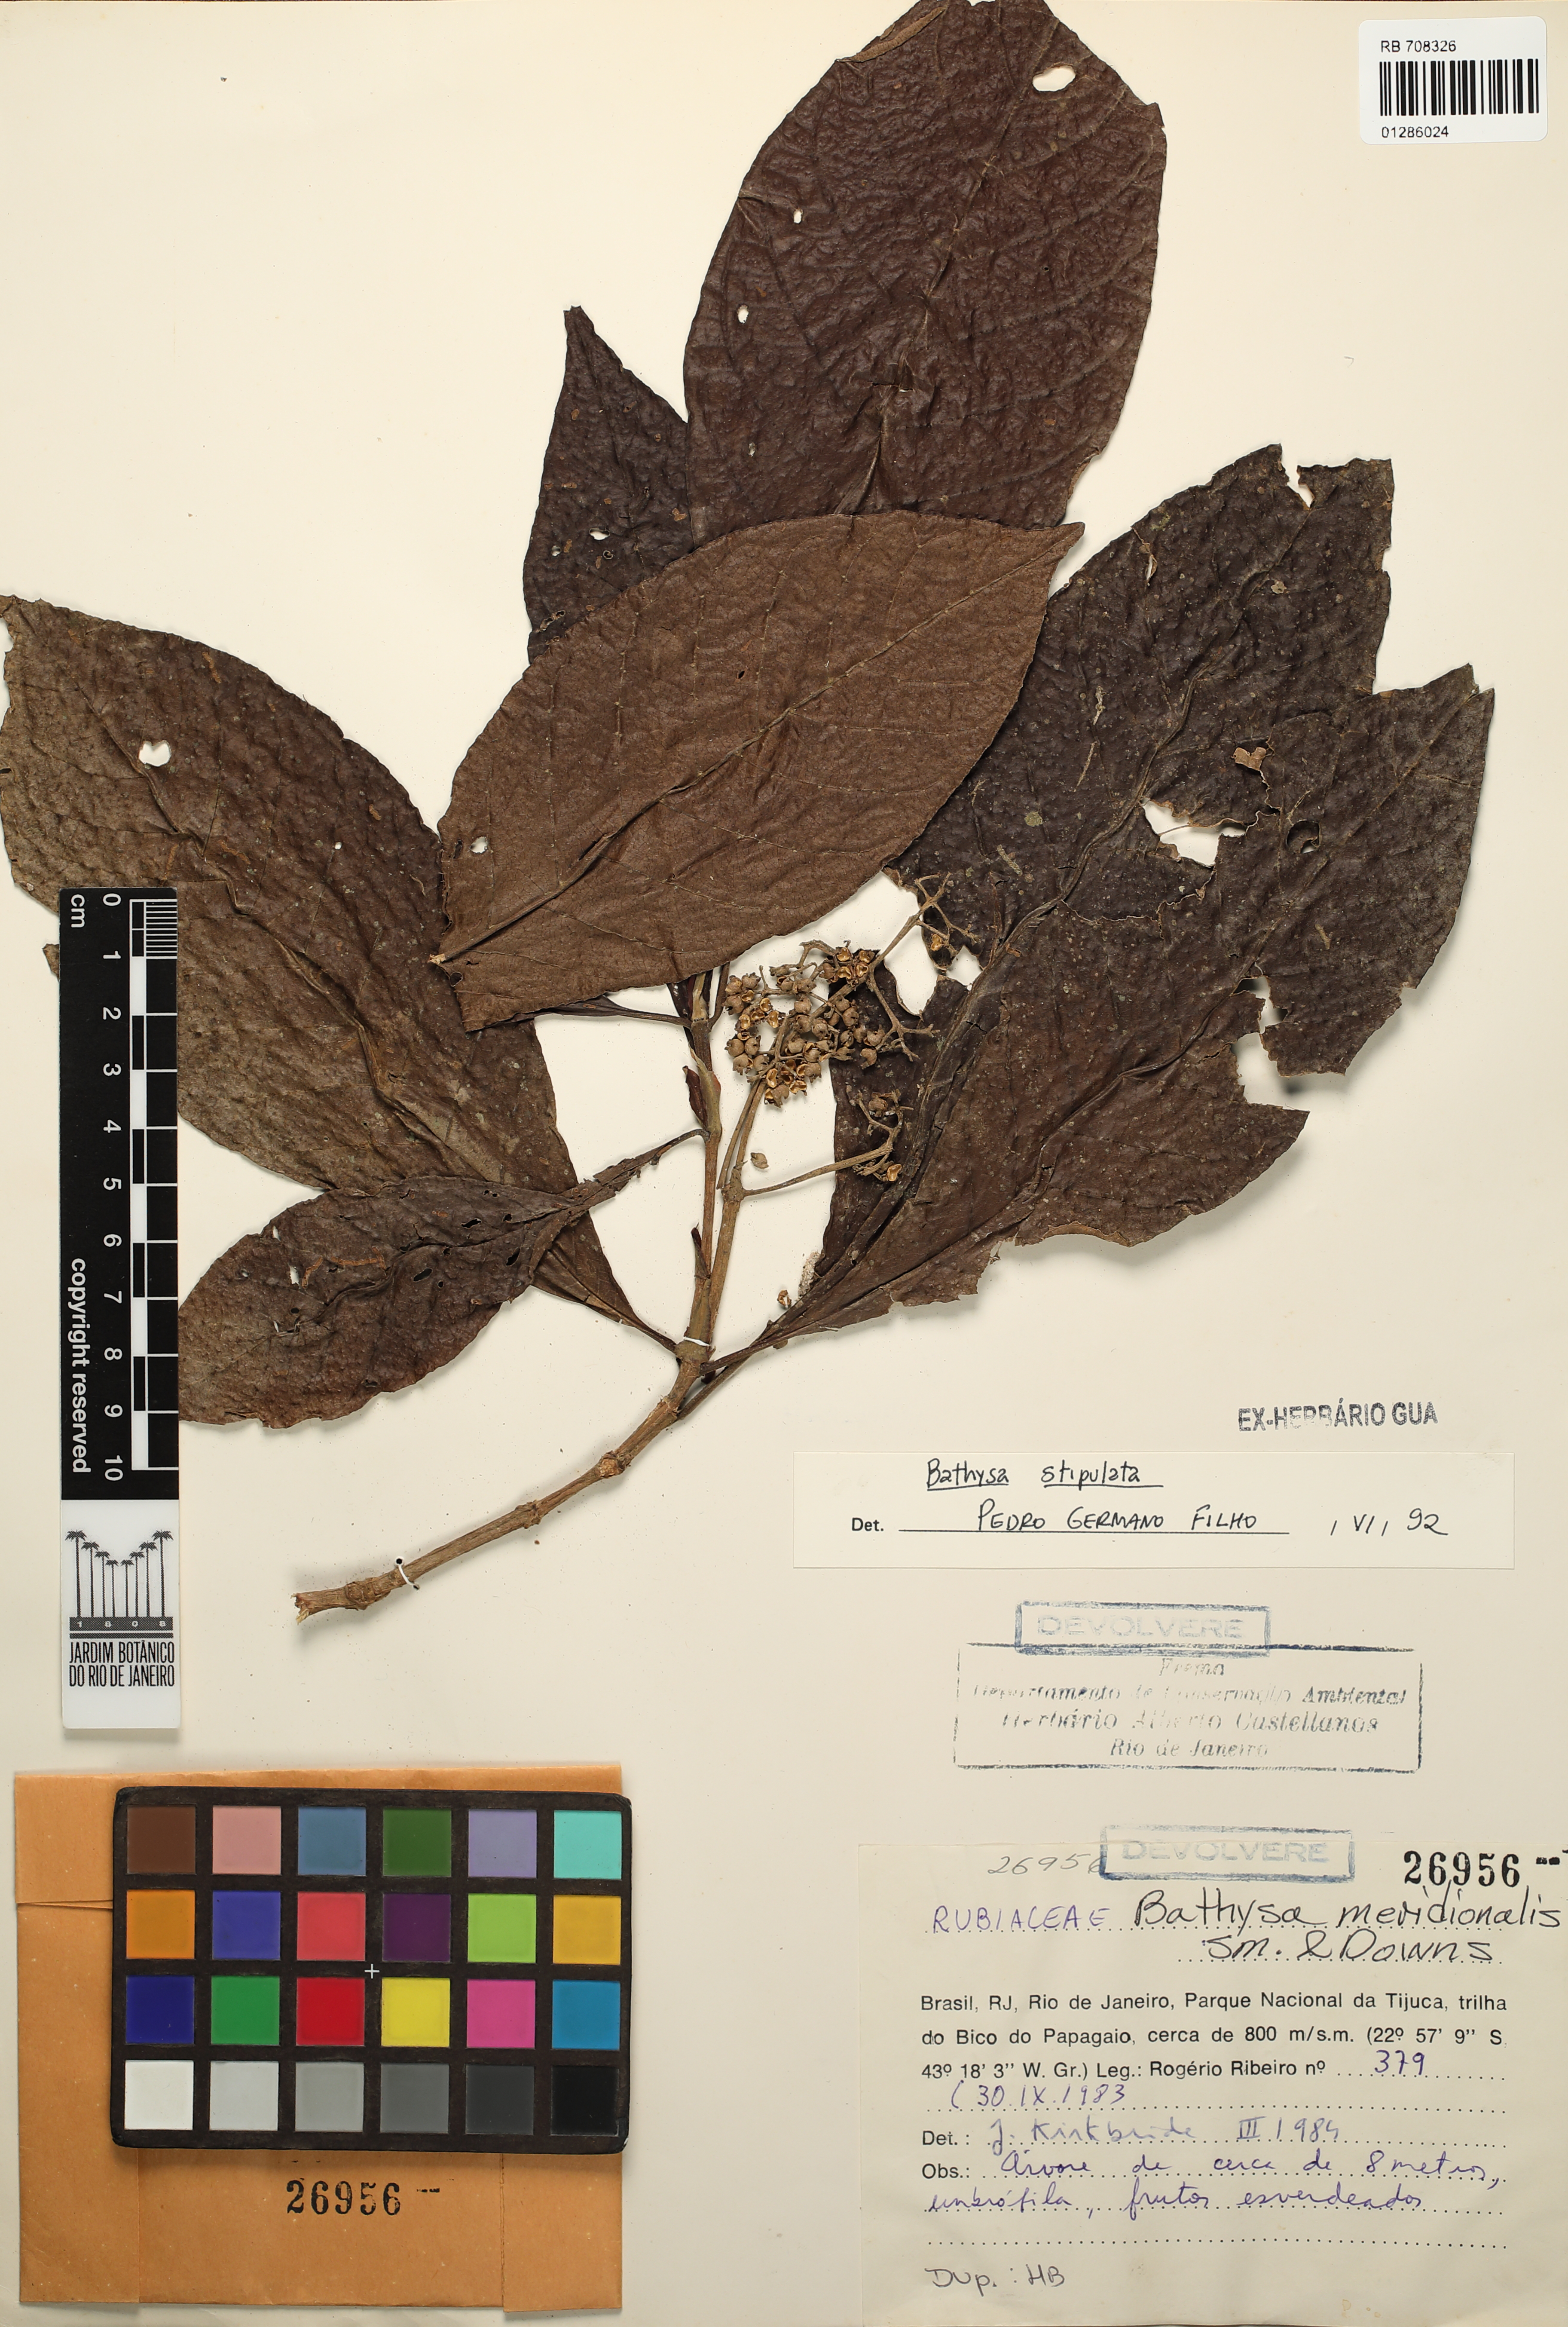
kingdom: Plantae
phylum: Tracheophyta
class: Magnoliopsida
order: Gentianales
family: Rubiaceae
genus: Bathysa
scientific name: Bathysa stipulata
